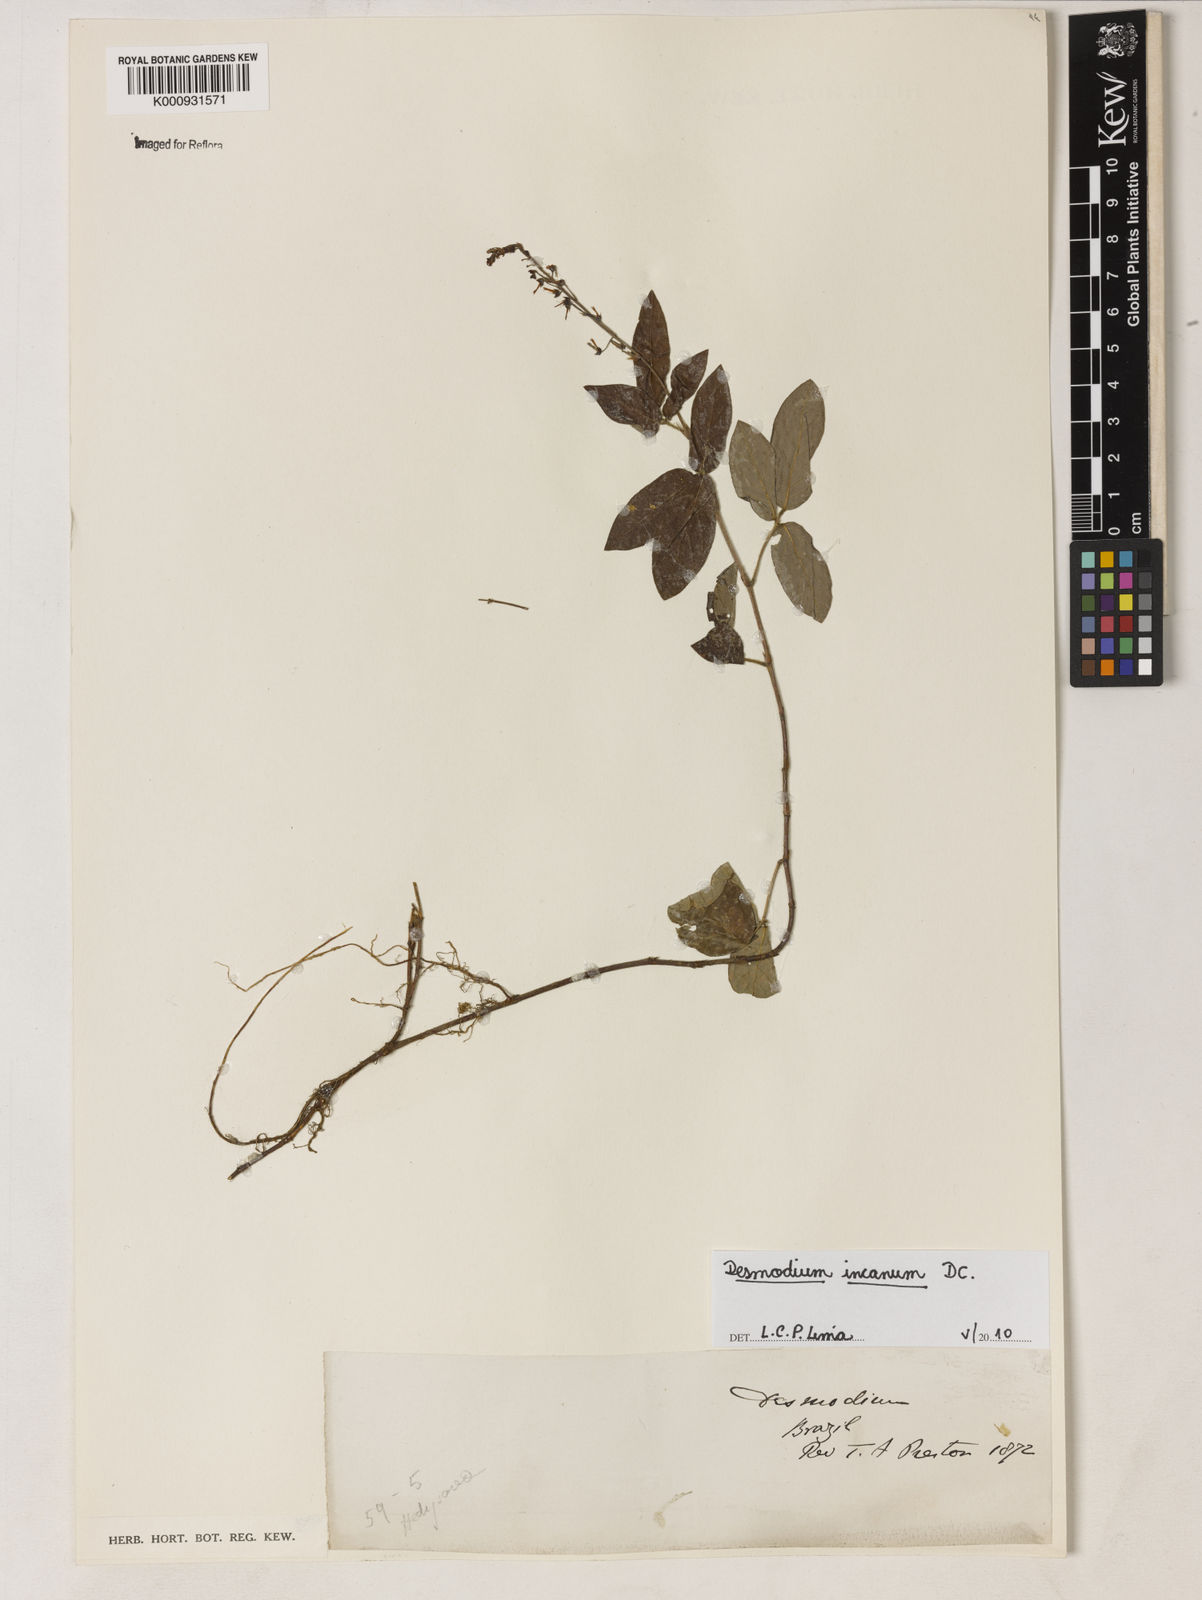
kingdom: Plantae
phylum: Tracheophyta
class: Magnoliopsida
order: Fabales
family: Fabaceae
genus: Desmodium
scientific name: Desmodium incanum
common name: Tickclover
